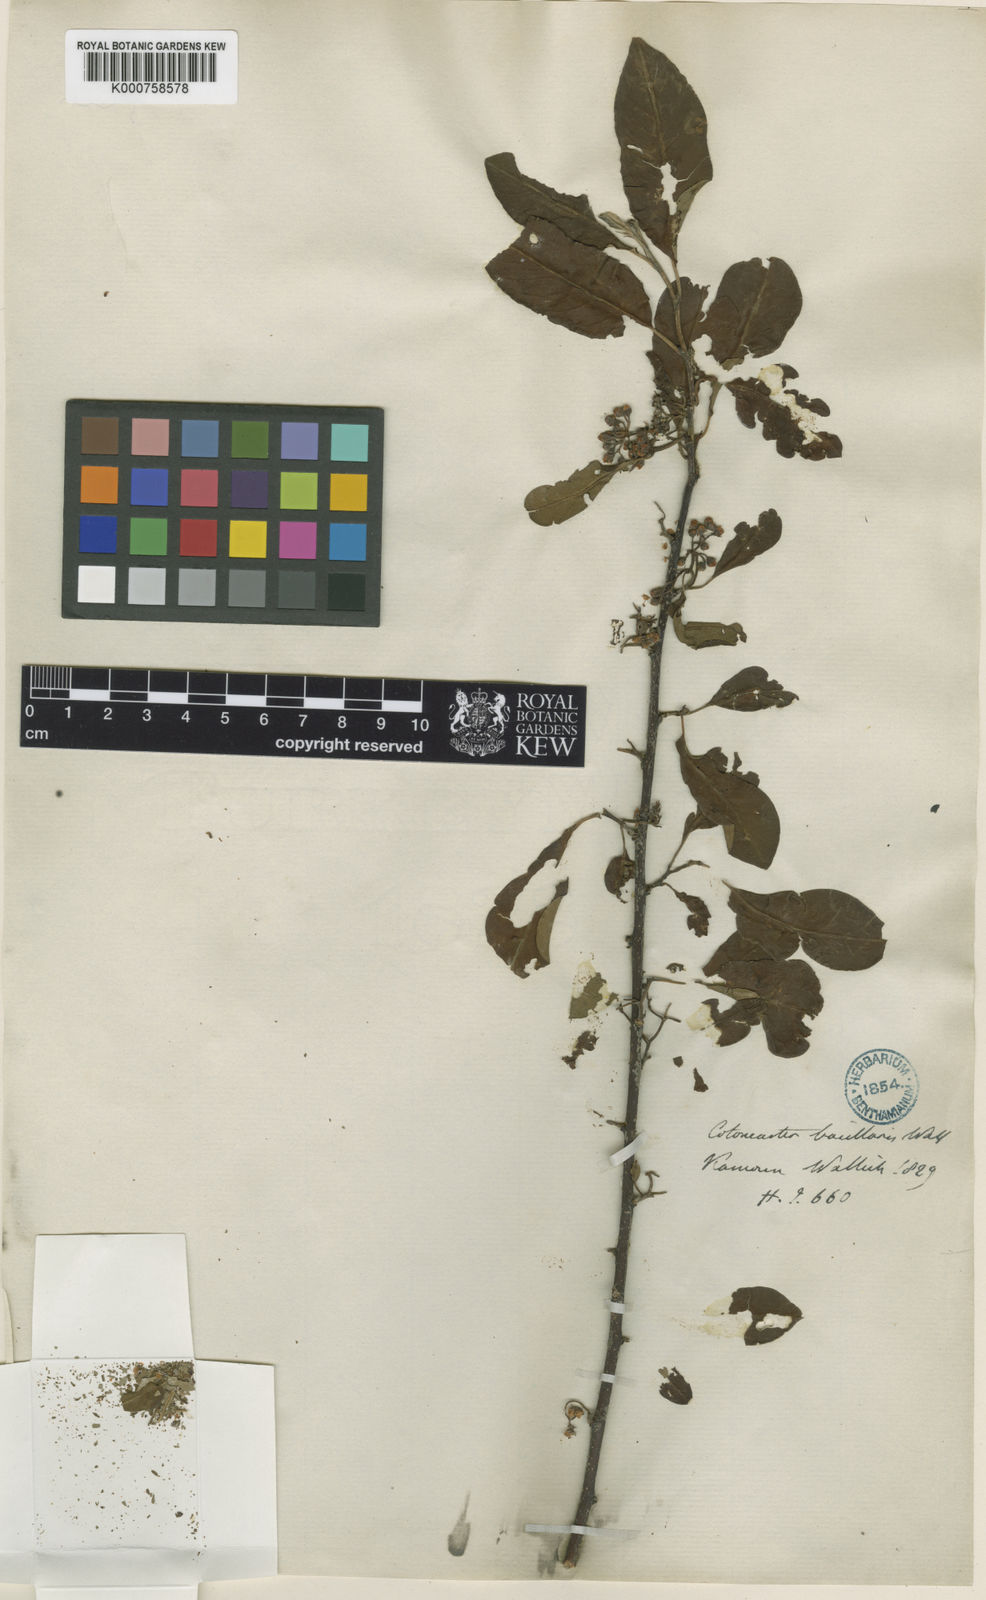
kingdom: Plantae
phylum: Tracheophyta
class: Magnoliopsida
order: Rosales
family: Rosaceae
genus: Cotoneaster
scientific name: Cotoneaster affinis
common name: Purpleberry cotoneaster
